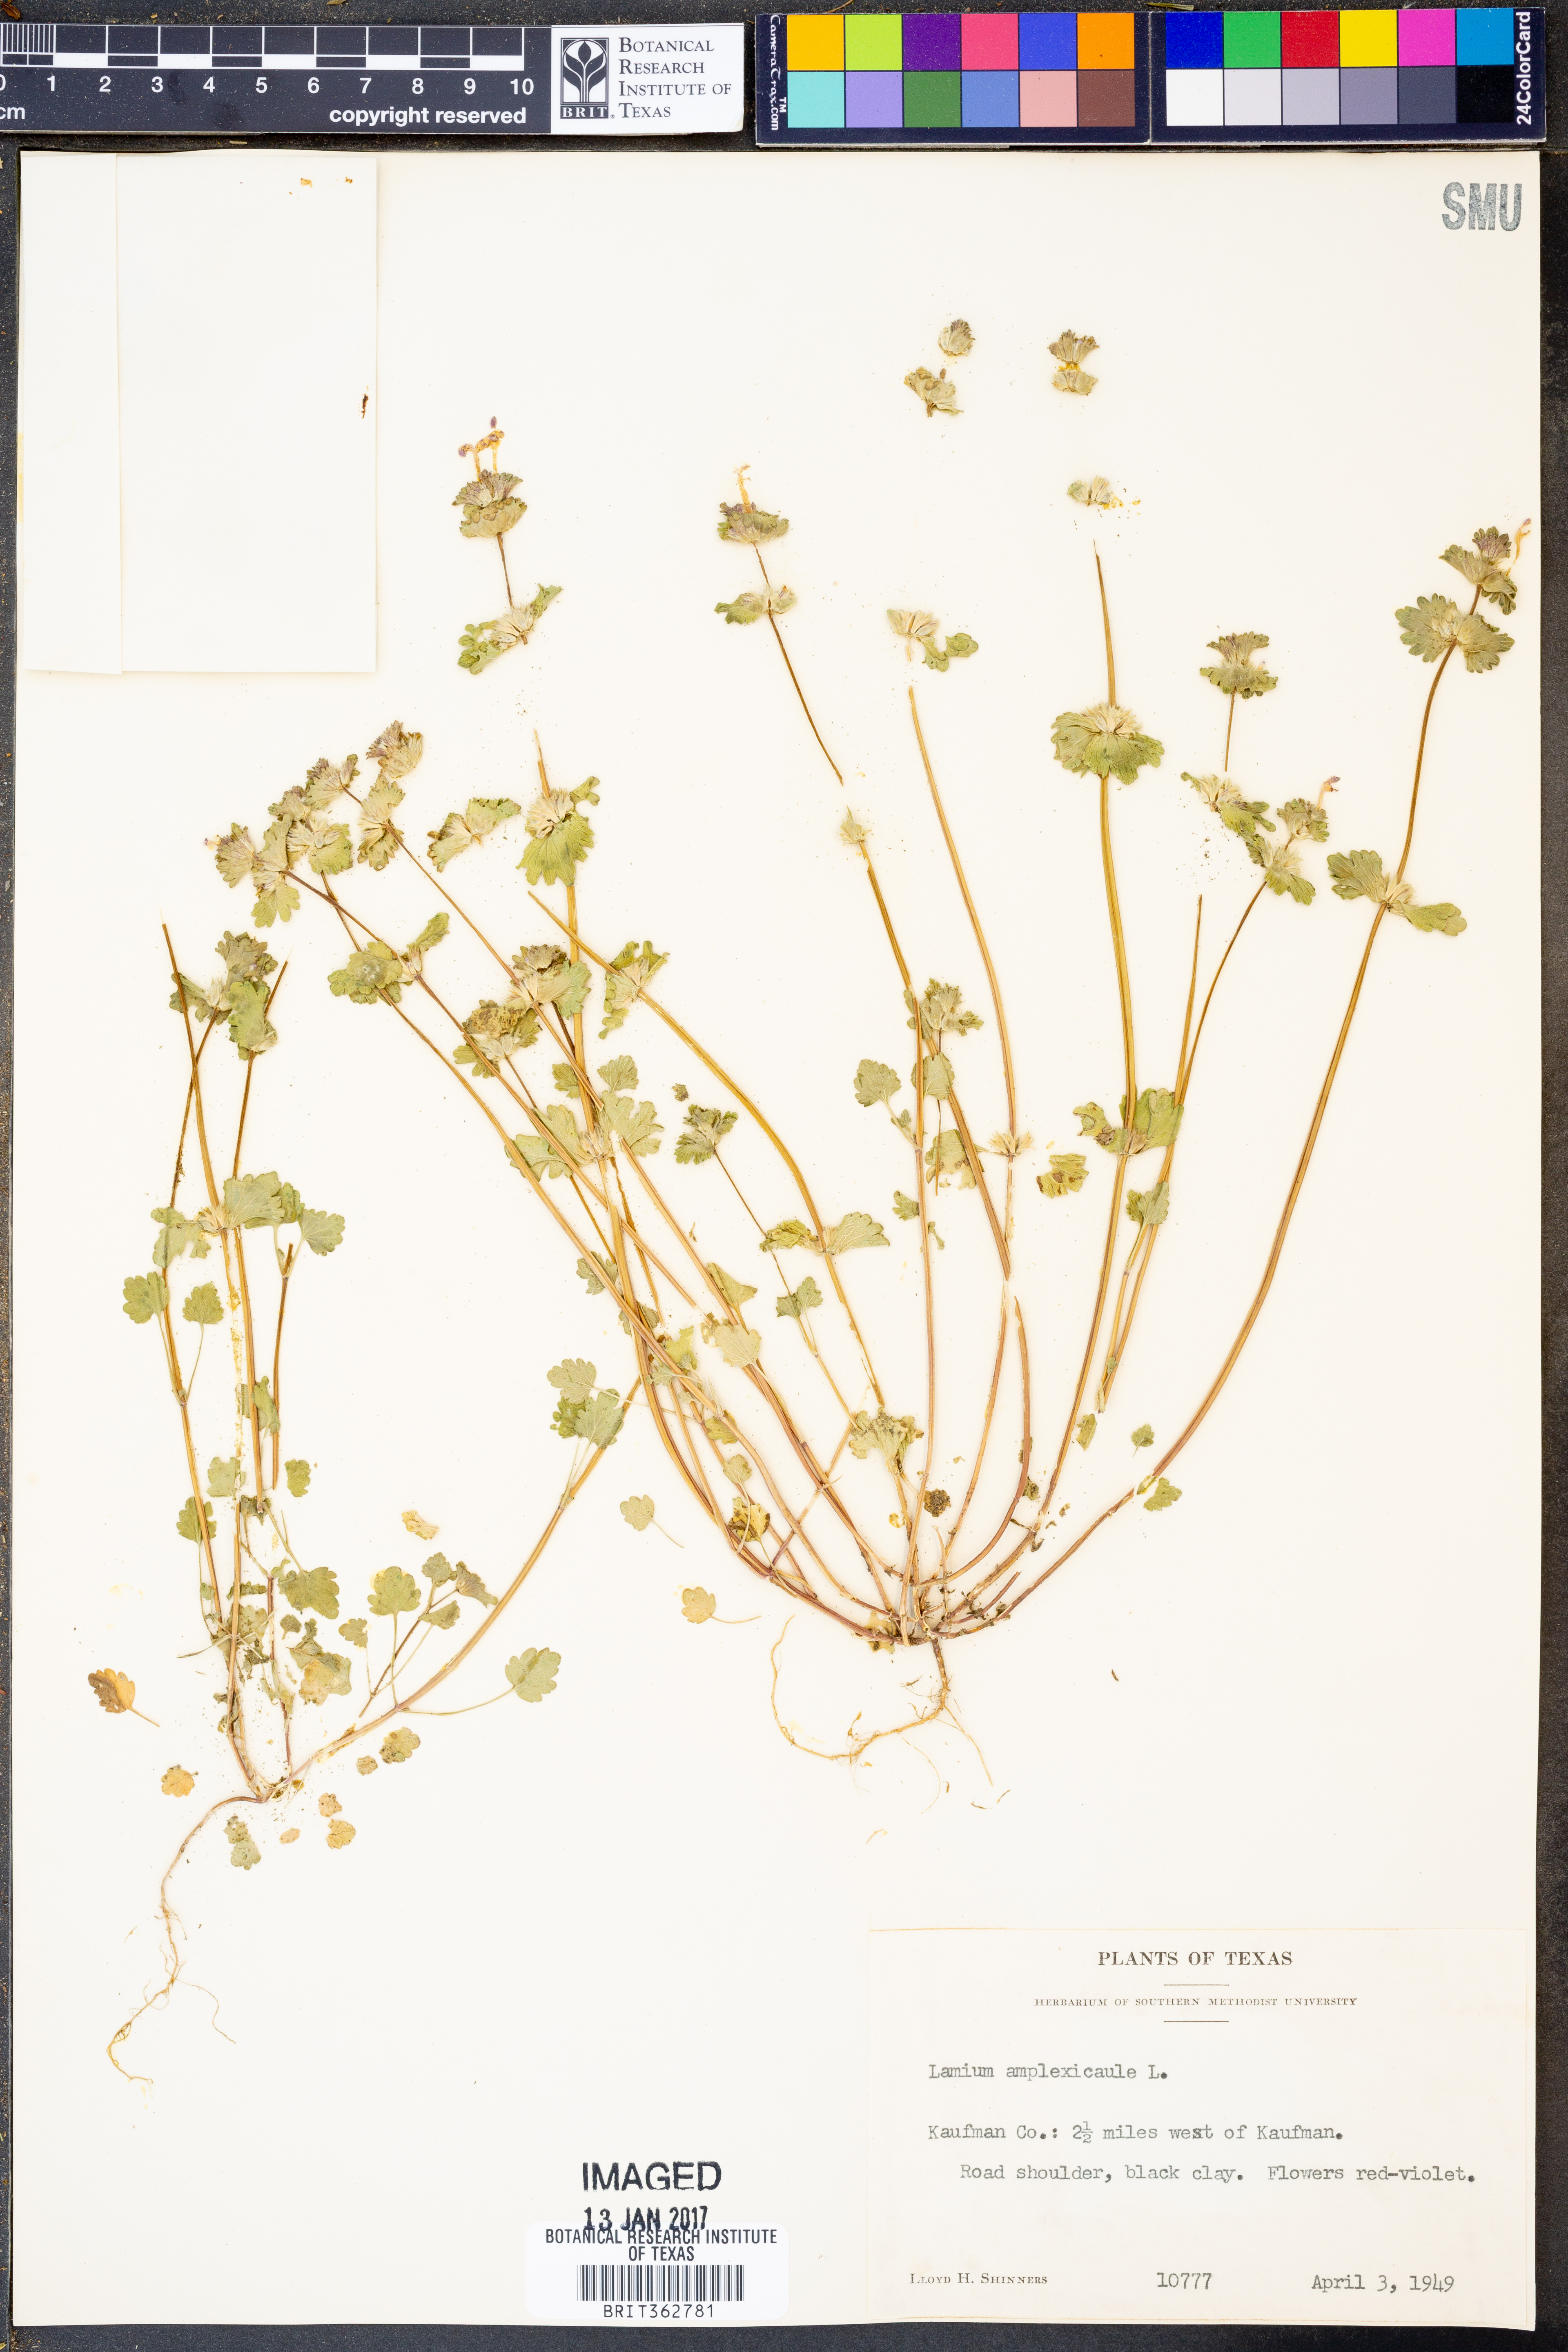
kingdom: Plantae
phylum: Tracheophyta
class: Magnoliopsida
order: Lamiales
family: Lamiaceae
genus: Lamium
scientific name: Lamium amplexicaule
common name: Henbit dead-nettle
